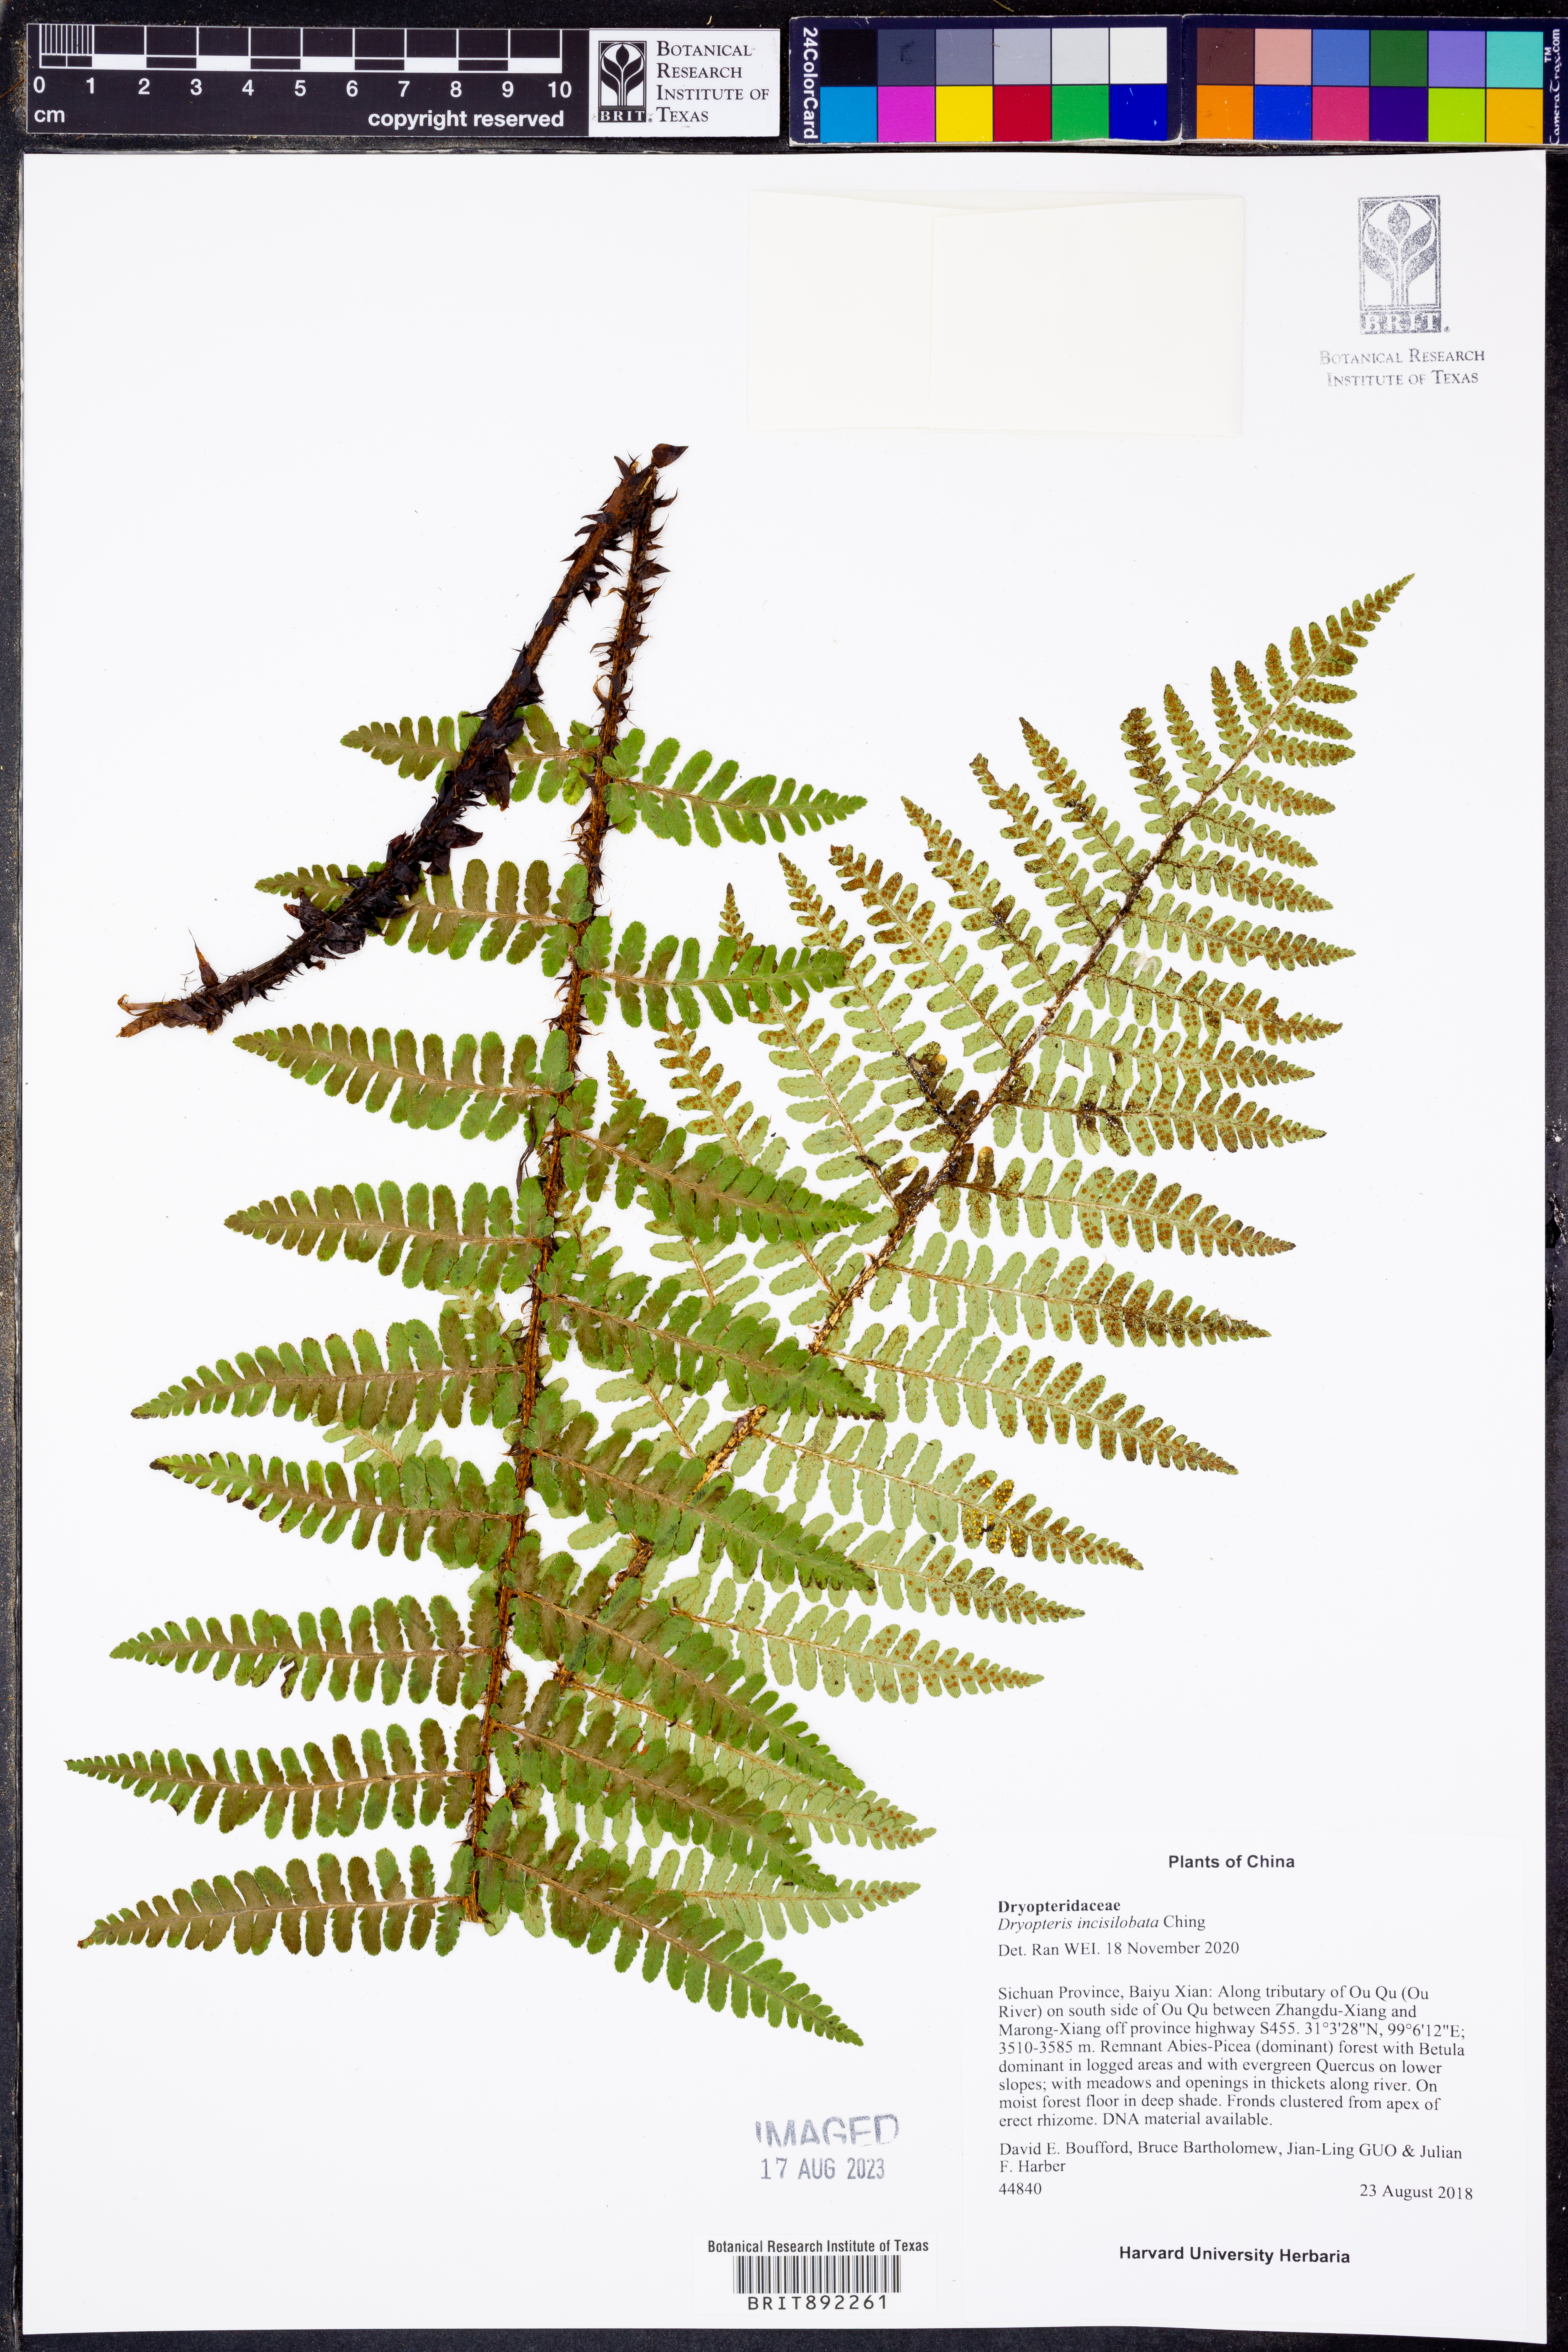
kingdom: Plantae
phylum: Tracheophyta
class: Polypodiopsida
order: Polypodiales
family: Dryopteridaceae
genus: Dryopteris
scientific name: Dryopteris zayuensis
